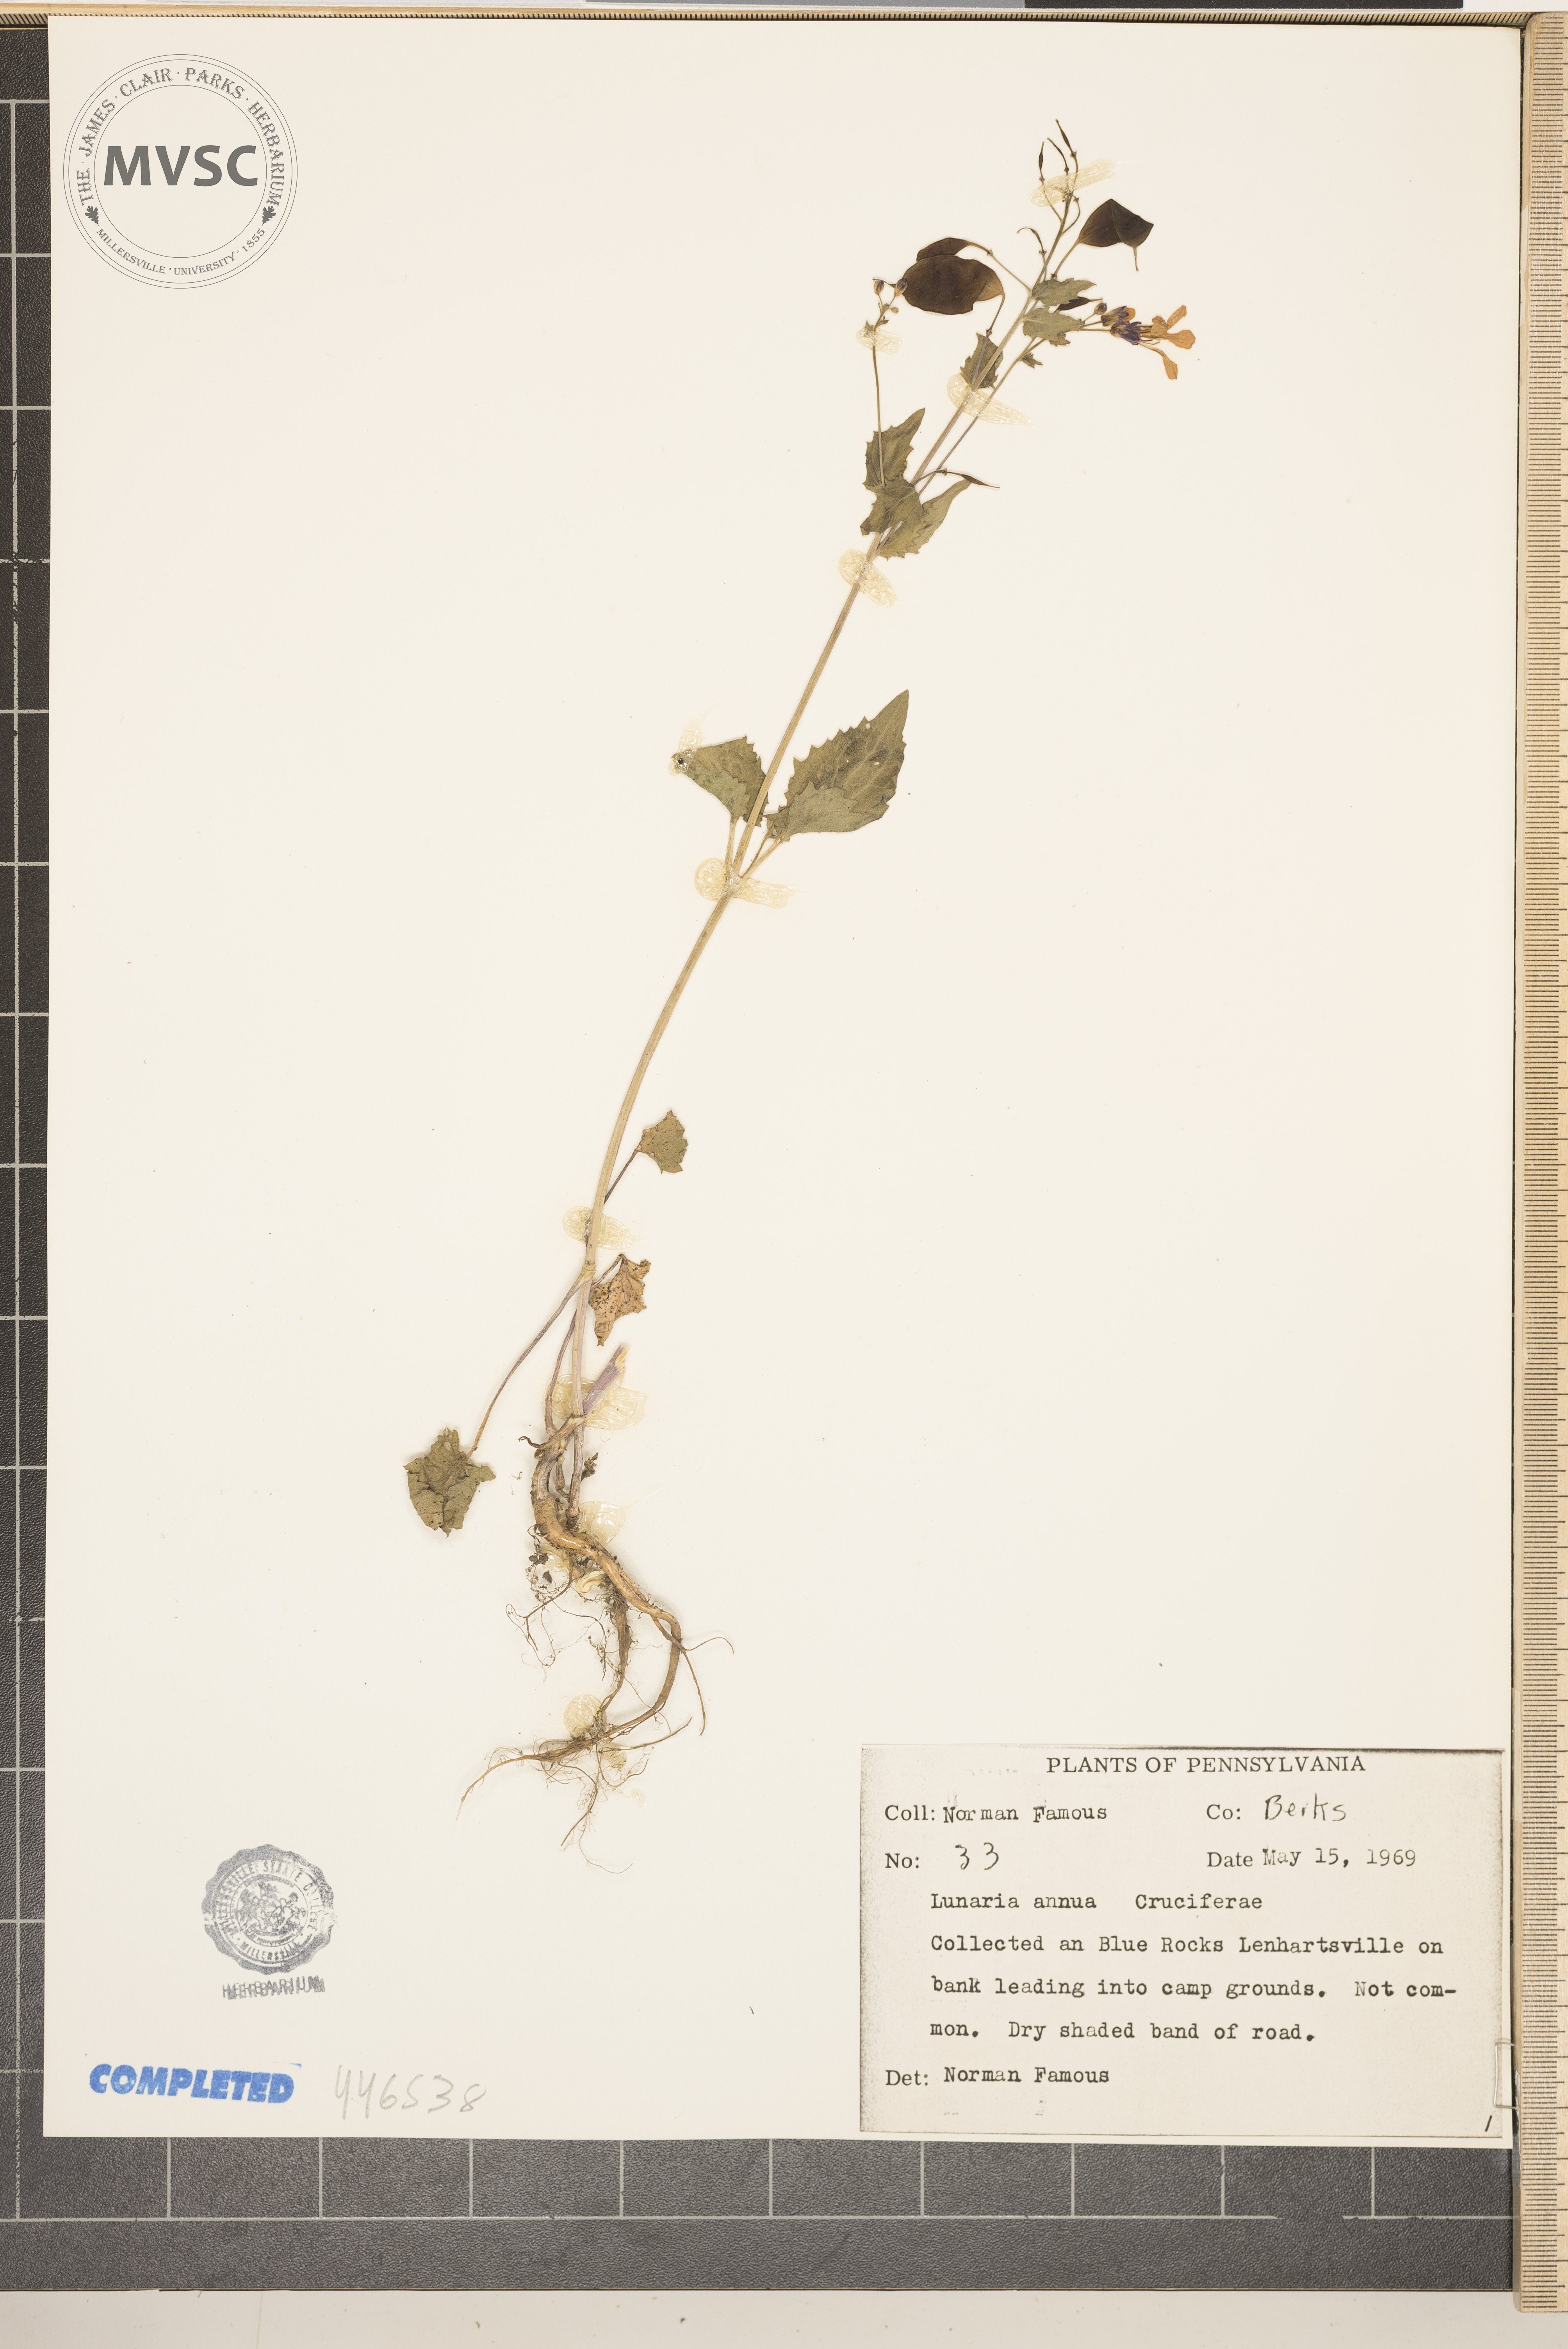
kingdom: Plantae
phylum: Tracheophyta
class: Magnoliopsida
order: Brassicales
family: Brassicaceae
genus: Lunaria
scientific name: Lunaria annua
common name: Honesty
